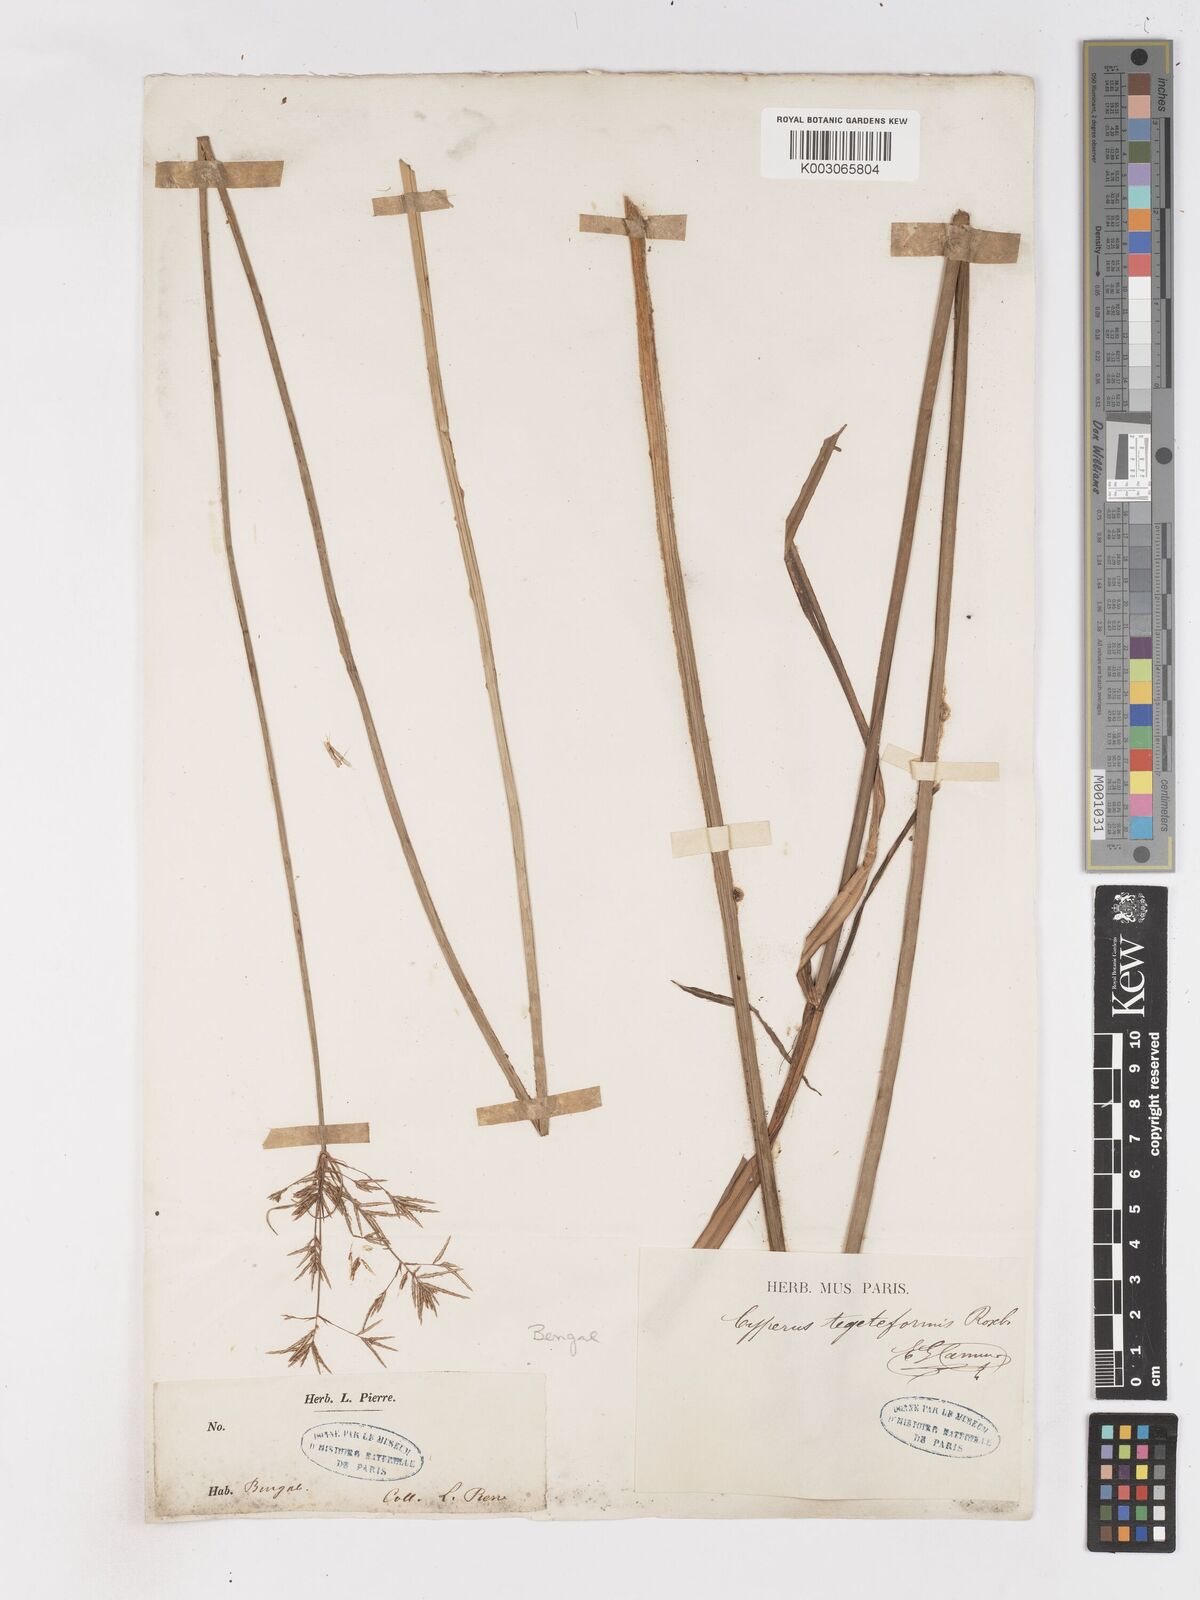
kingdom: Plantae
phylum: Tracheophyta
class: Liliopsida
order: Poales
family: Cyperaceae
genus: Cyperus
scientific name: Cyperus corymbosus
